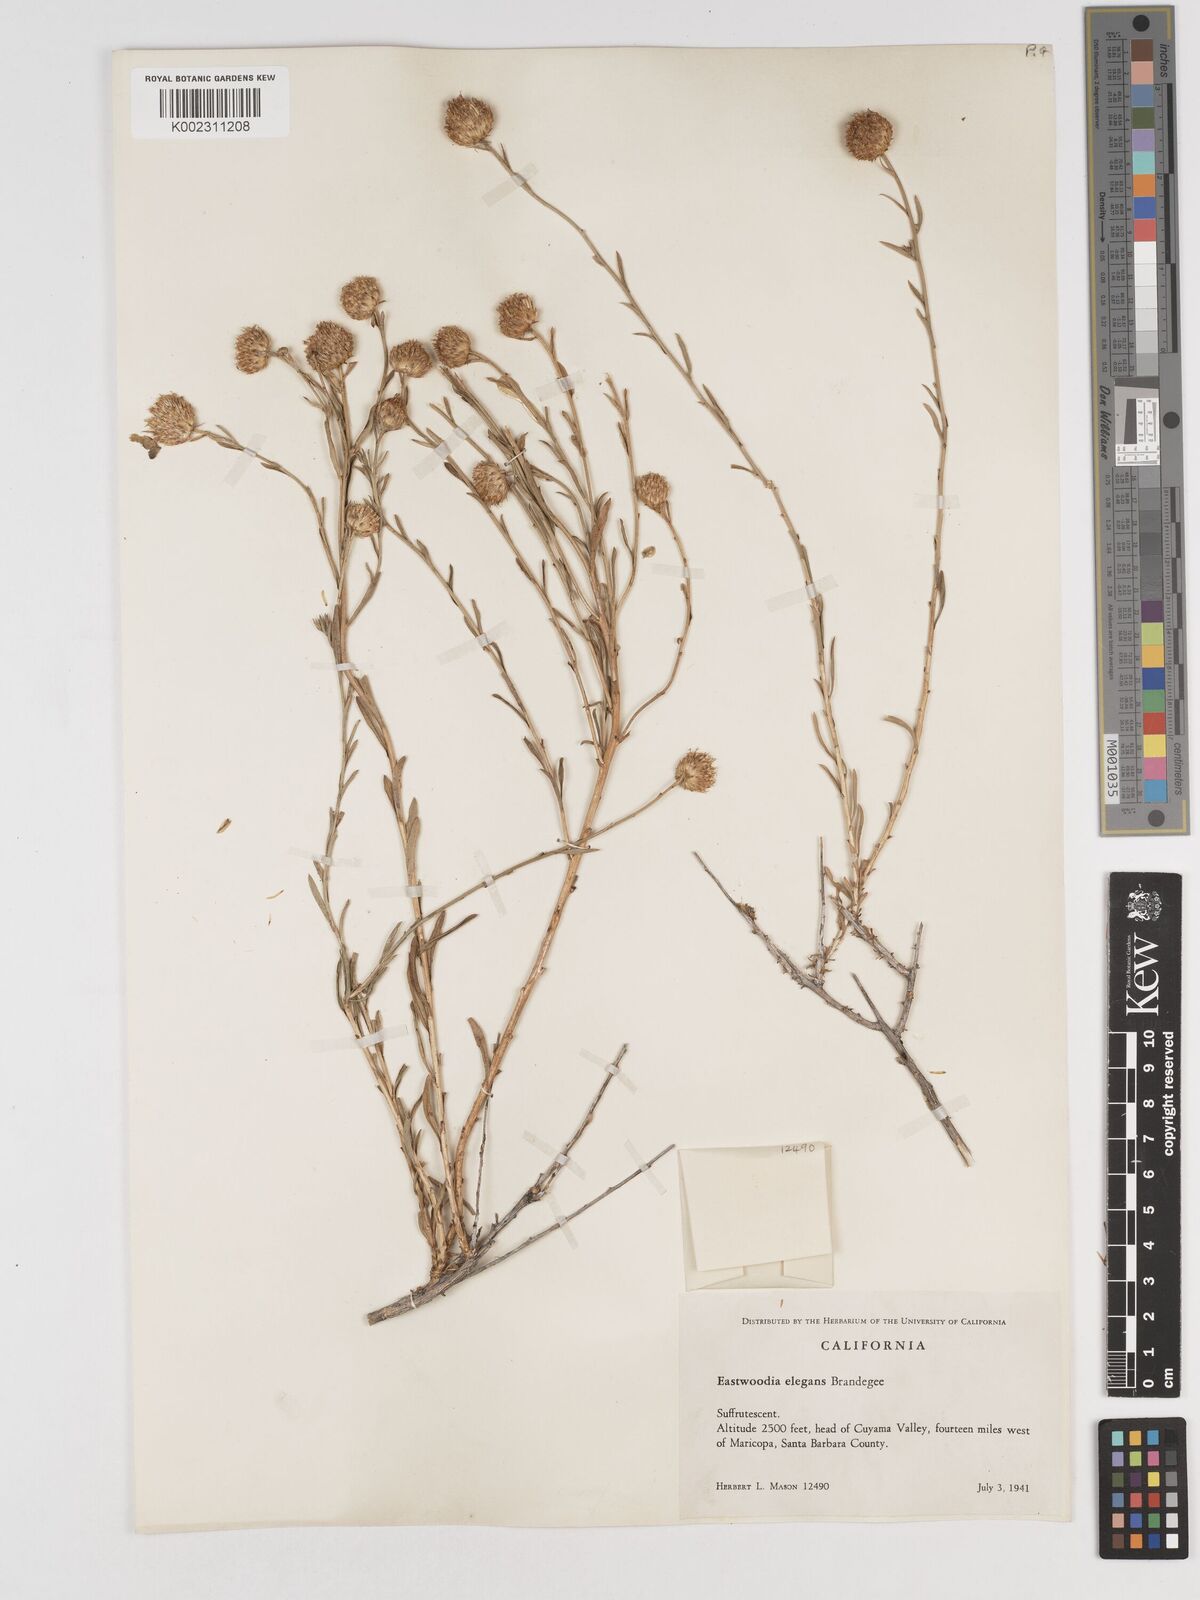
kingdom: Plantae
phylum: Tracheophyta
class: Magnoliopsida
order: Asterales
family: Asteraceae
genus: Eastwoodia
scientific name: Eastwoodia elegans
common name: Yellow-aster
